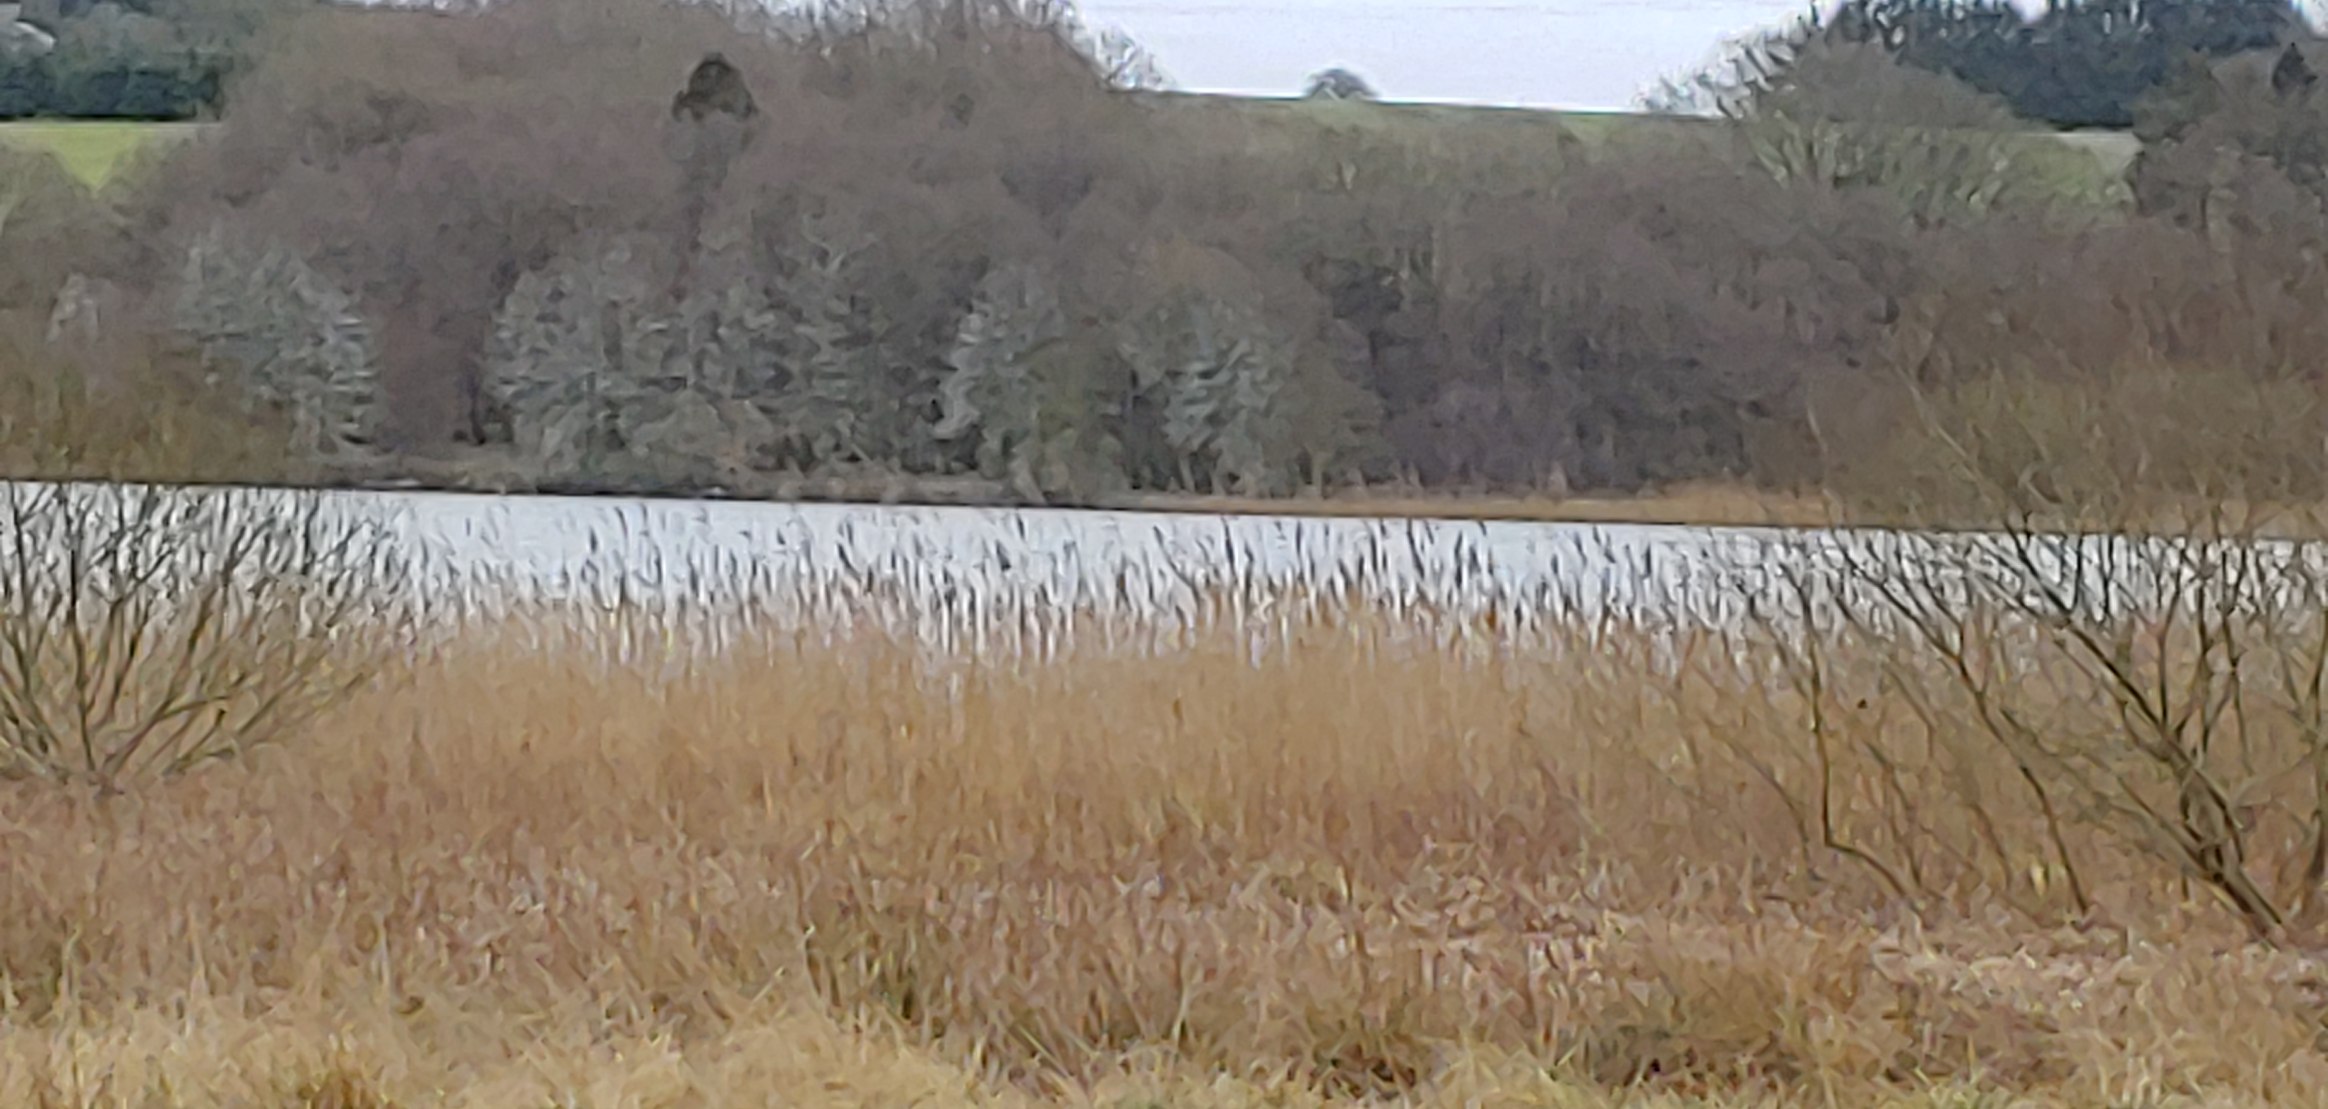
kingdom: Animalia
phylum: Chordata
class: Aves
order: Suliformes
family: Phalacrocoracidae
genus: Phalacrocorax
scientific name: Phalacrocorax carbo
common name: Skarv
